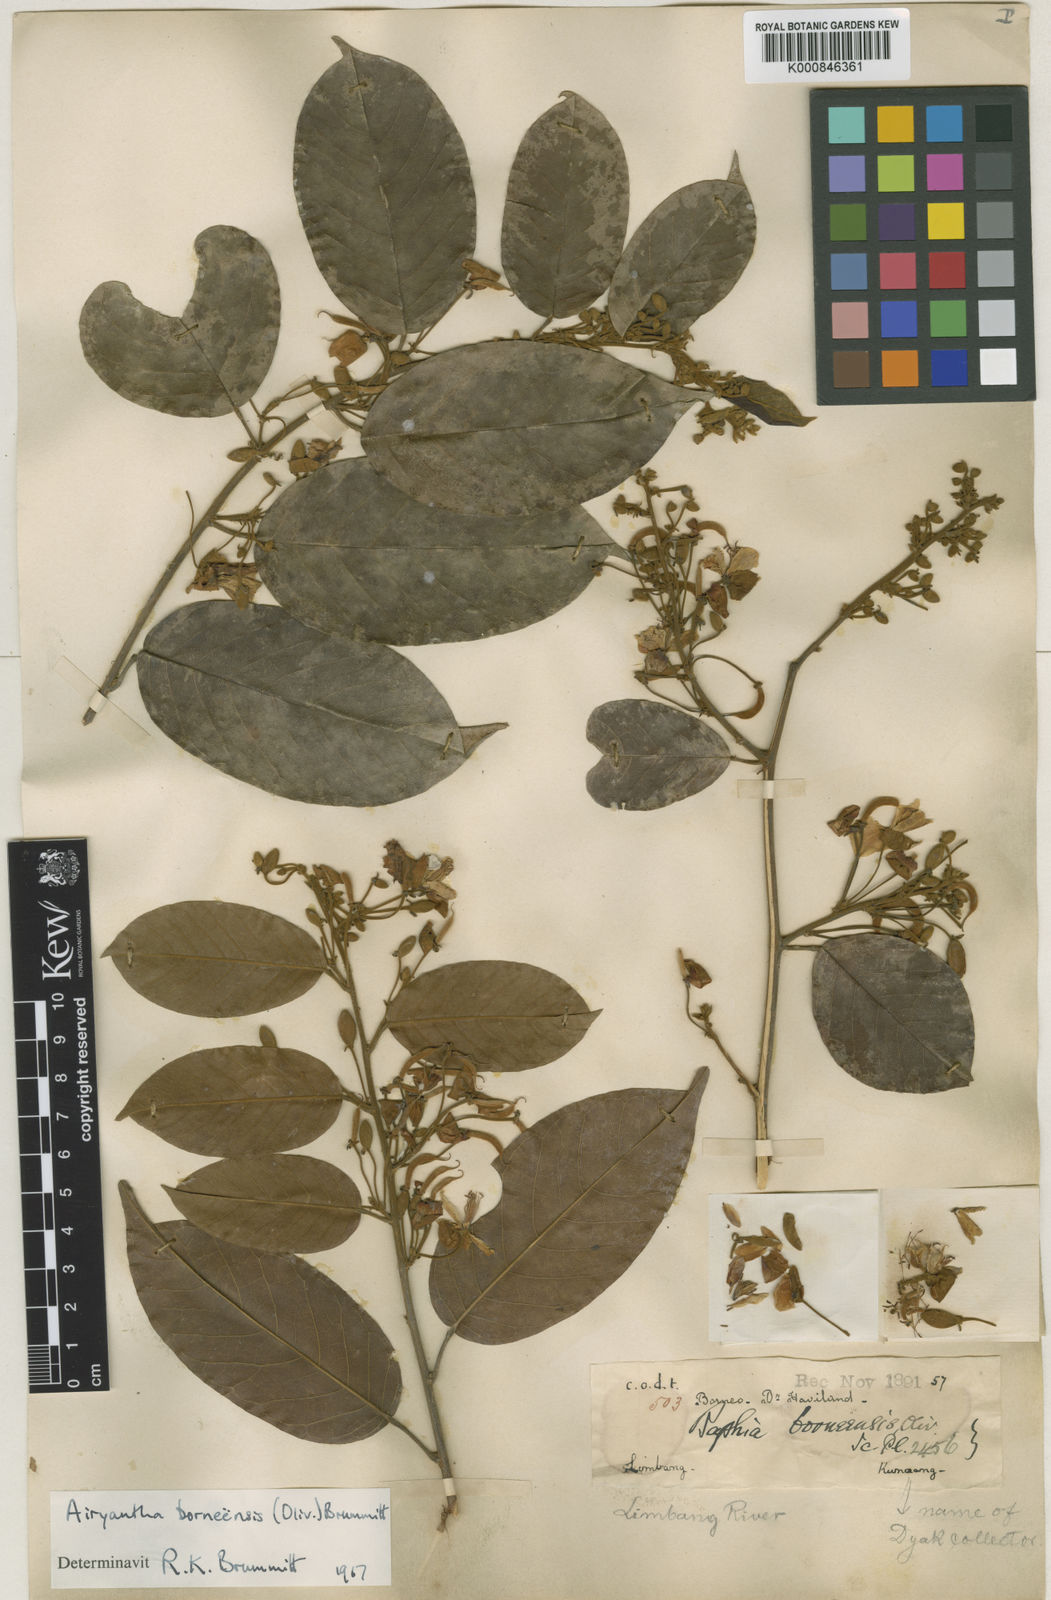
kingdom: Plantae
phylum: Tracheophyta
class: Magnoliopsida
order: Fabales
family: Fabaceae
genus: Airyantha
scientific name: Airyantha borneensis
